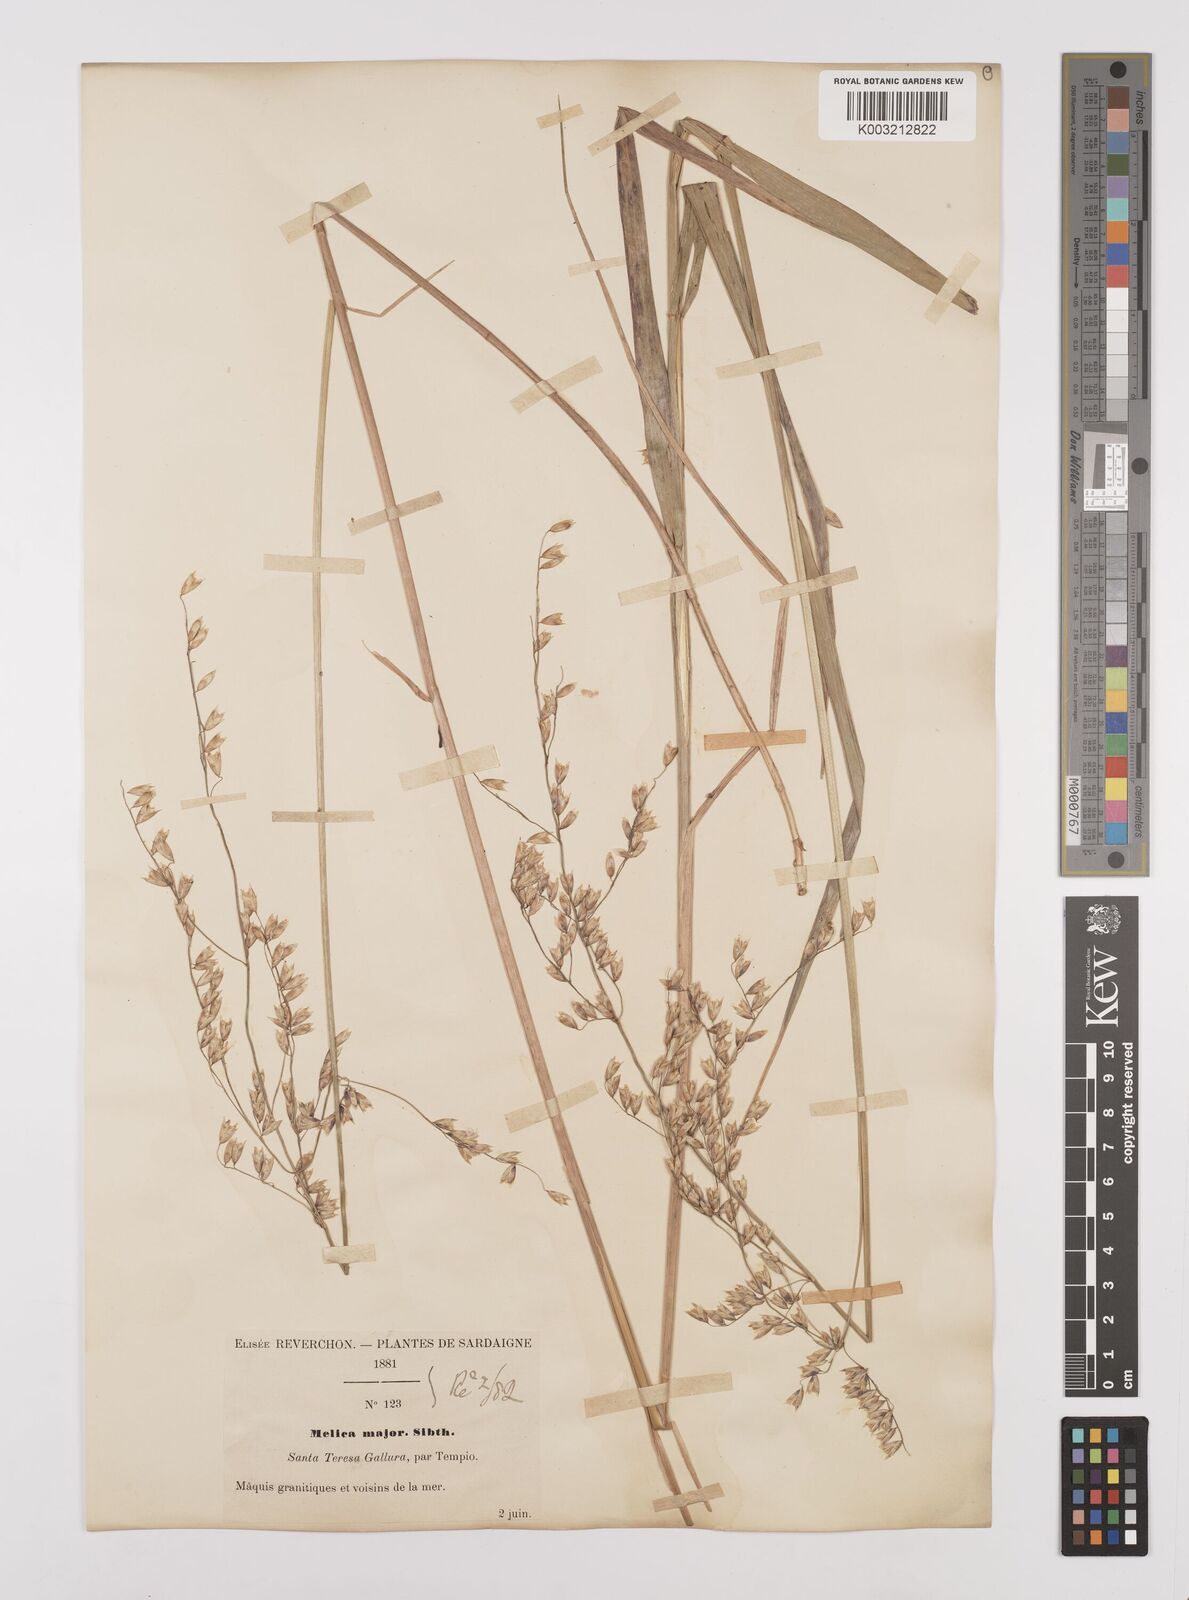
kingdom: Plantae
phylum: Tracheophyta
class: Liliopsida
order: Poales
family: Poaceae
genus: Melica
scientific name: Melica minuta
